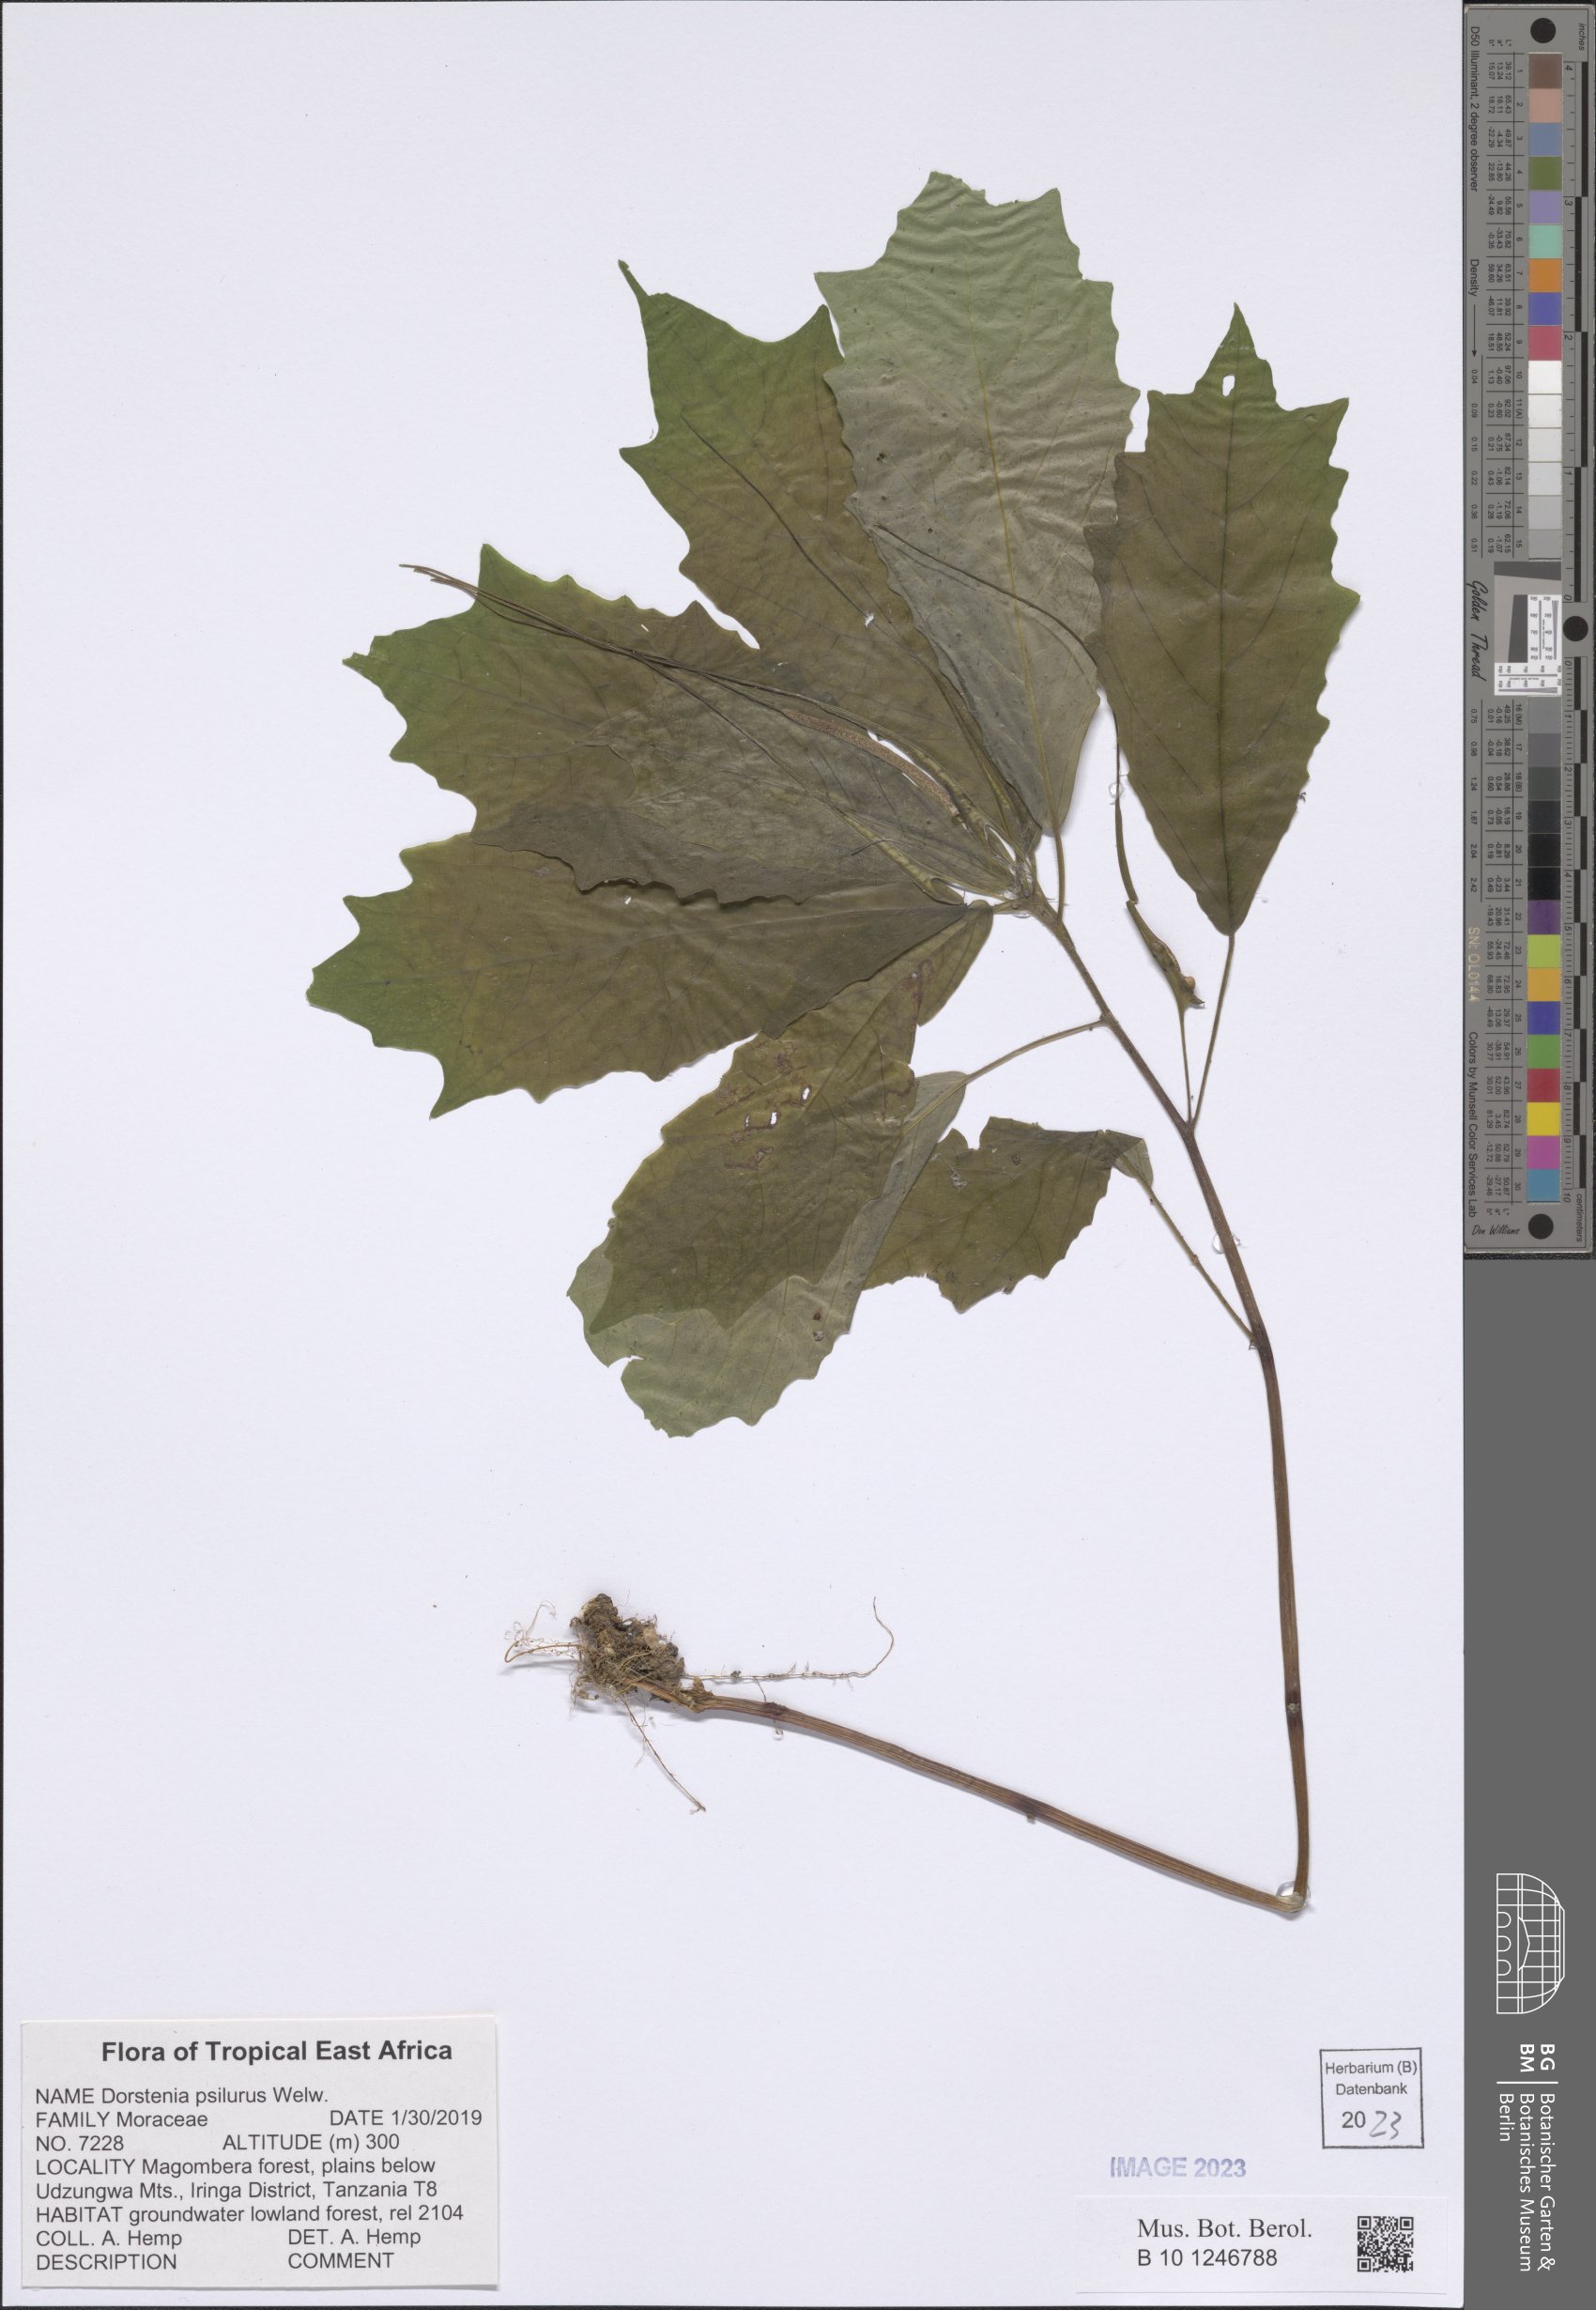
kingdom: Plantae
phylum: Tracheophyta
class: Magnoliopsida
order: Rosales
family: Moraceae
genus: Dorstenia
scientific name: Dorstenia psilurus
